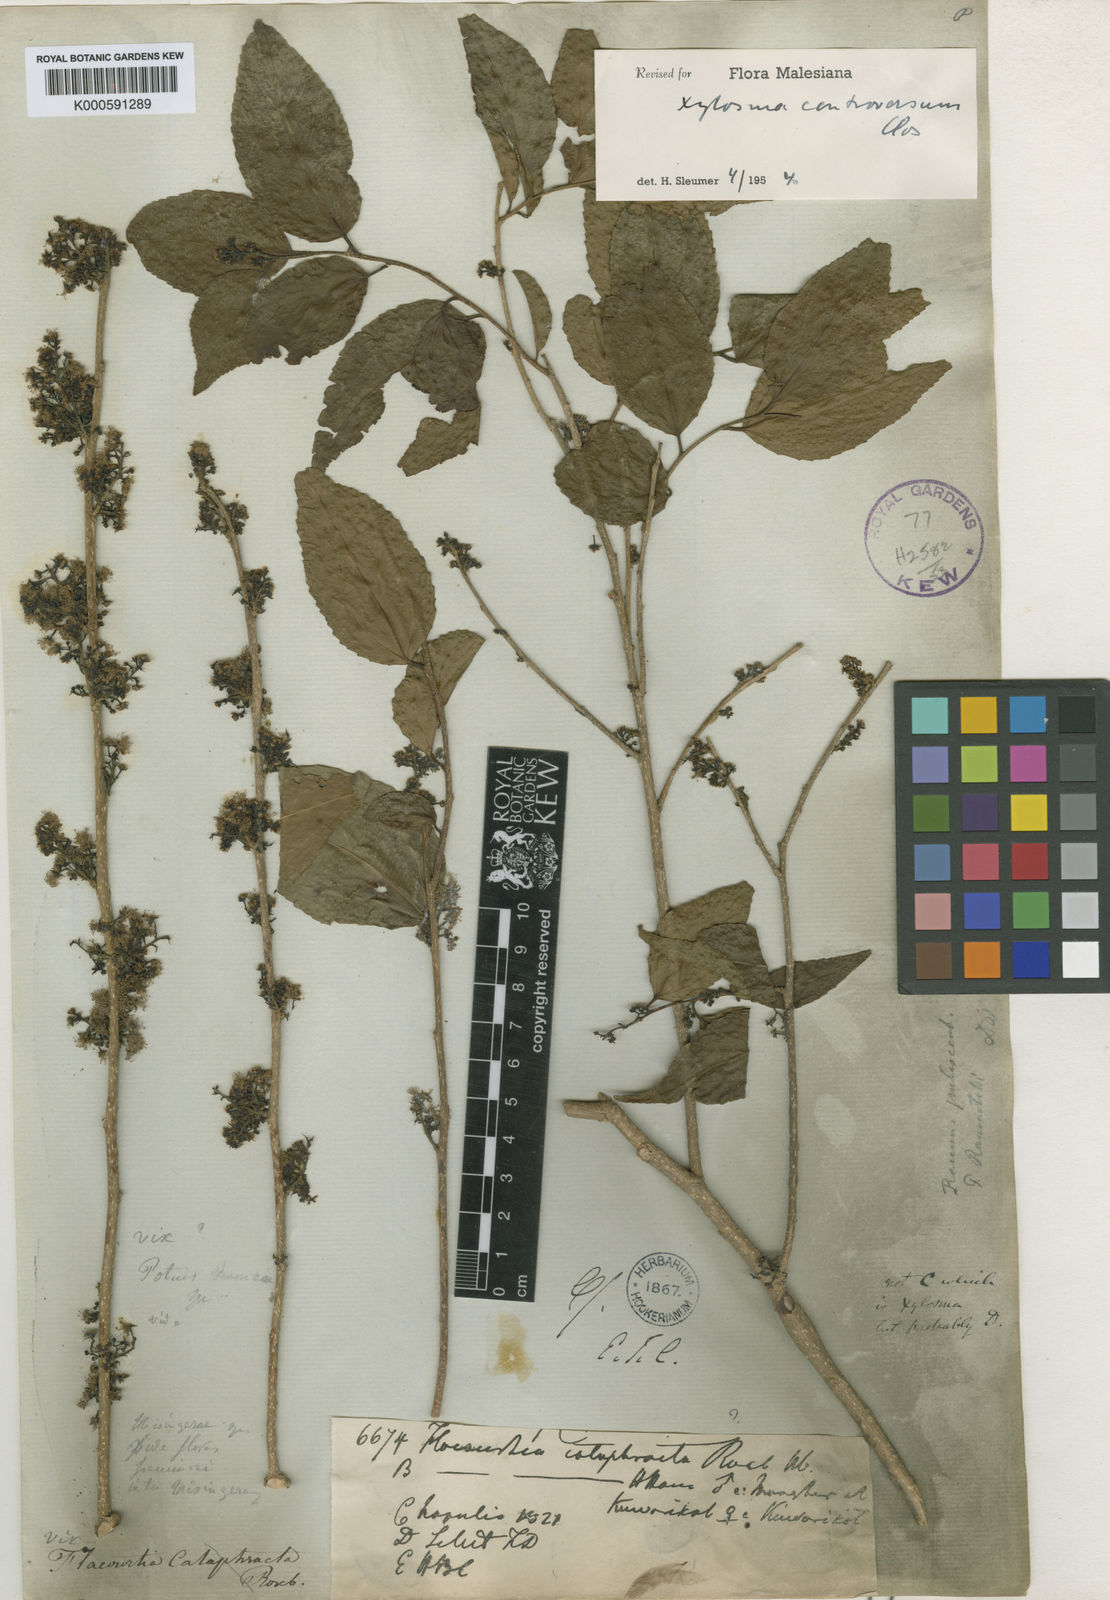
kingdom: Plantae
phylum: Tracheophyta
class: Magnoliopsida
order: Malpighiales
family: Salicaceae
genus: Xylosma
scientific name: Xylosma controversa
